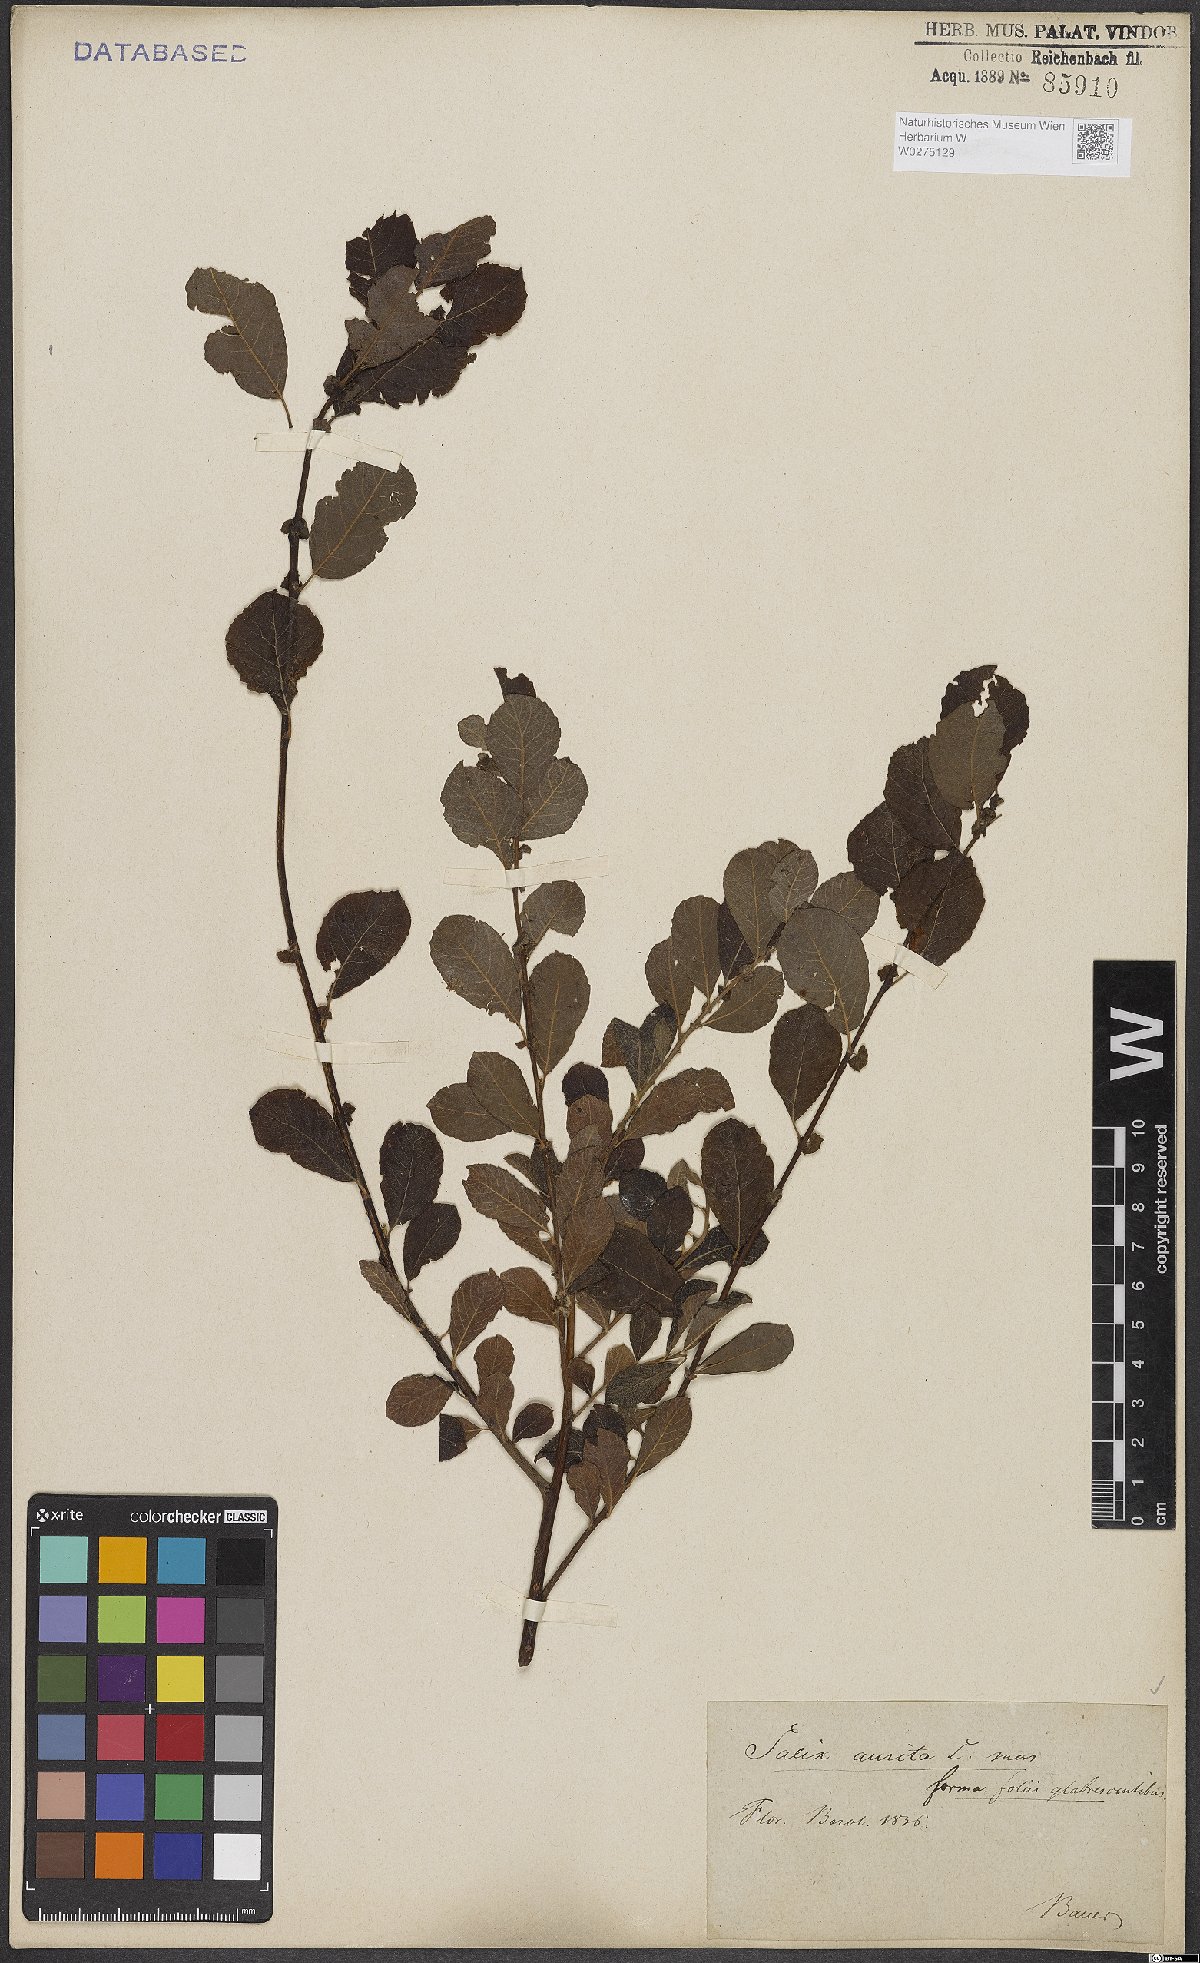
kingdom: Plantae
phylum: Tracheophyta
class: Magnoliopsida
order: Malpighiales
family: Salicaceae
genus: Salix
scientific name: Salix aurita
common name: Eared willow
